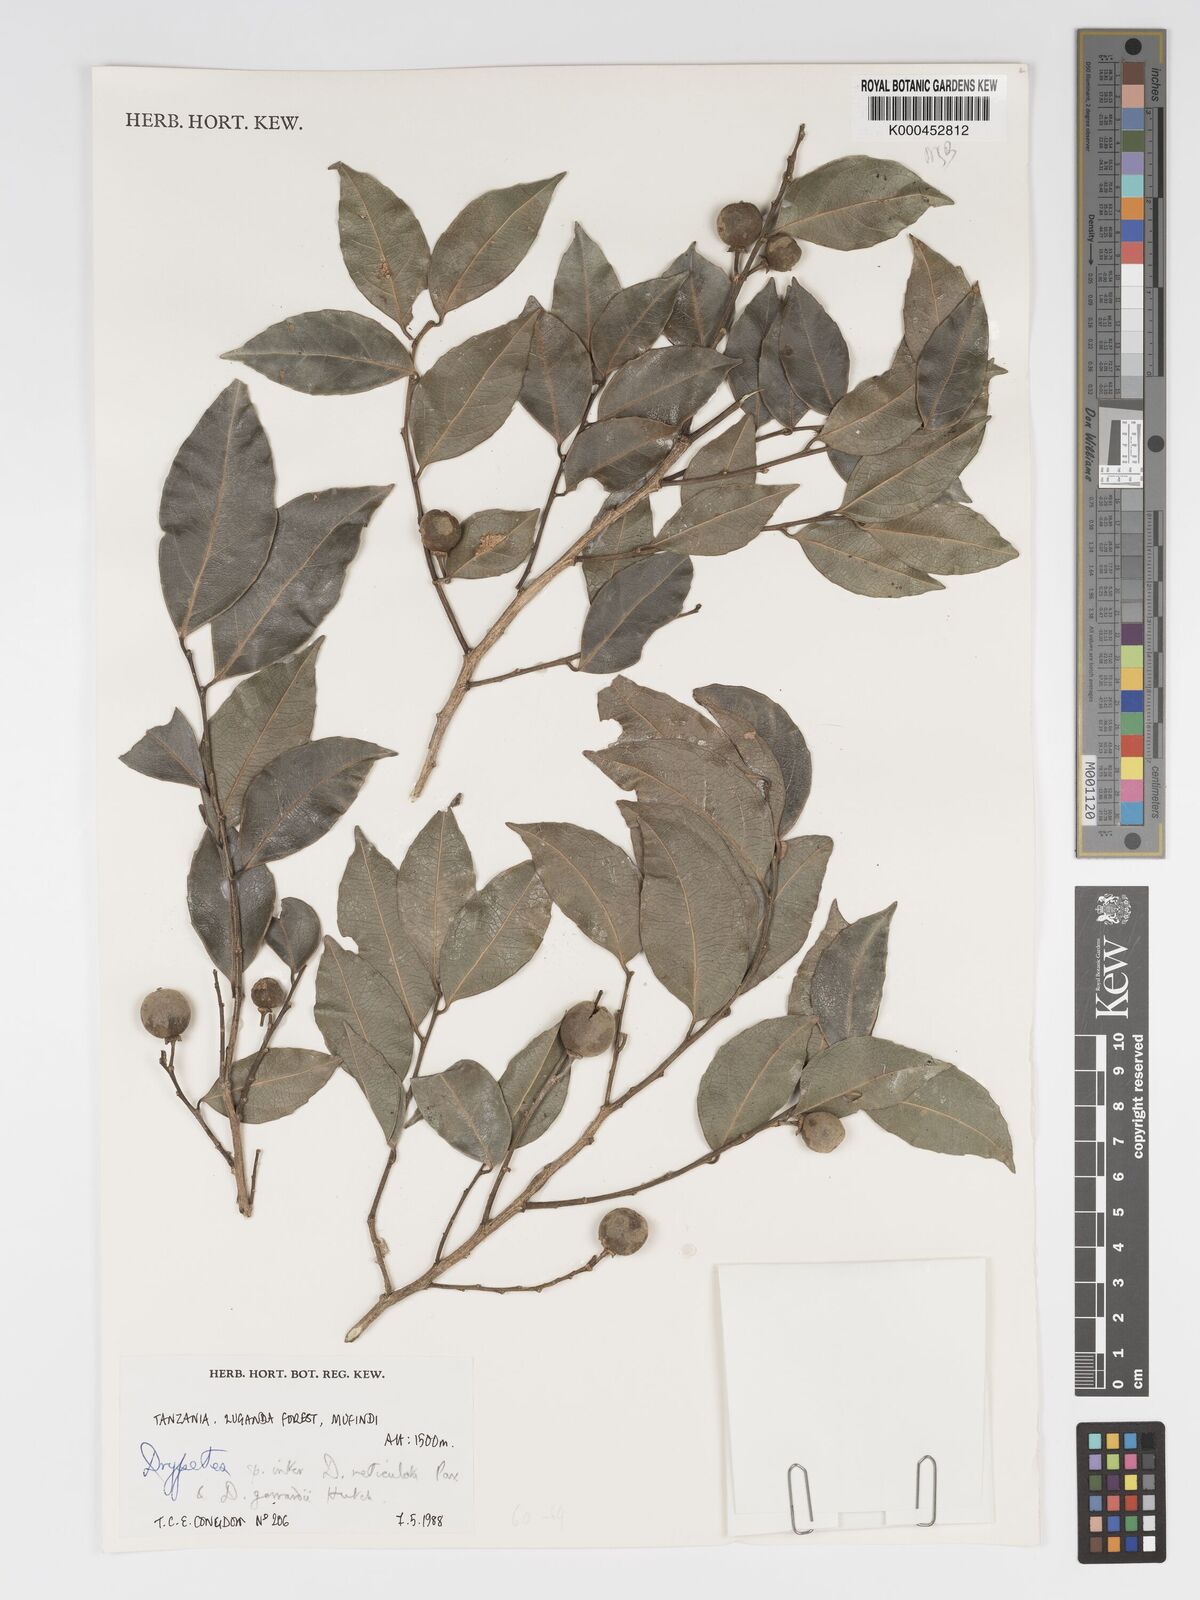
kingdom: Plantae
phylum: Tracheophyta
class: Magnoliopsida
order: Malpighiales
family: Putranjivaceae
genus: Drypetes
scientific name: Drypetes gerrardii
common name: Forest ironplum
